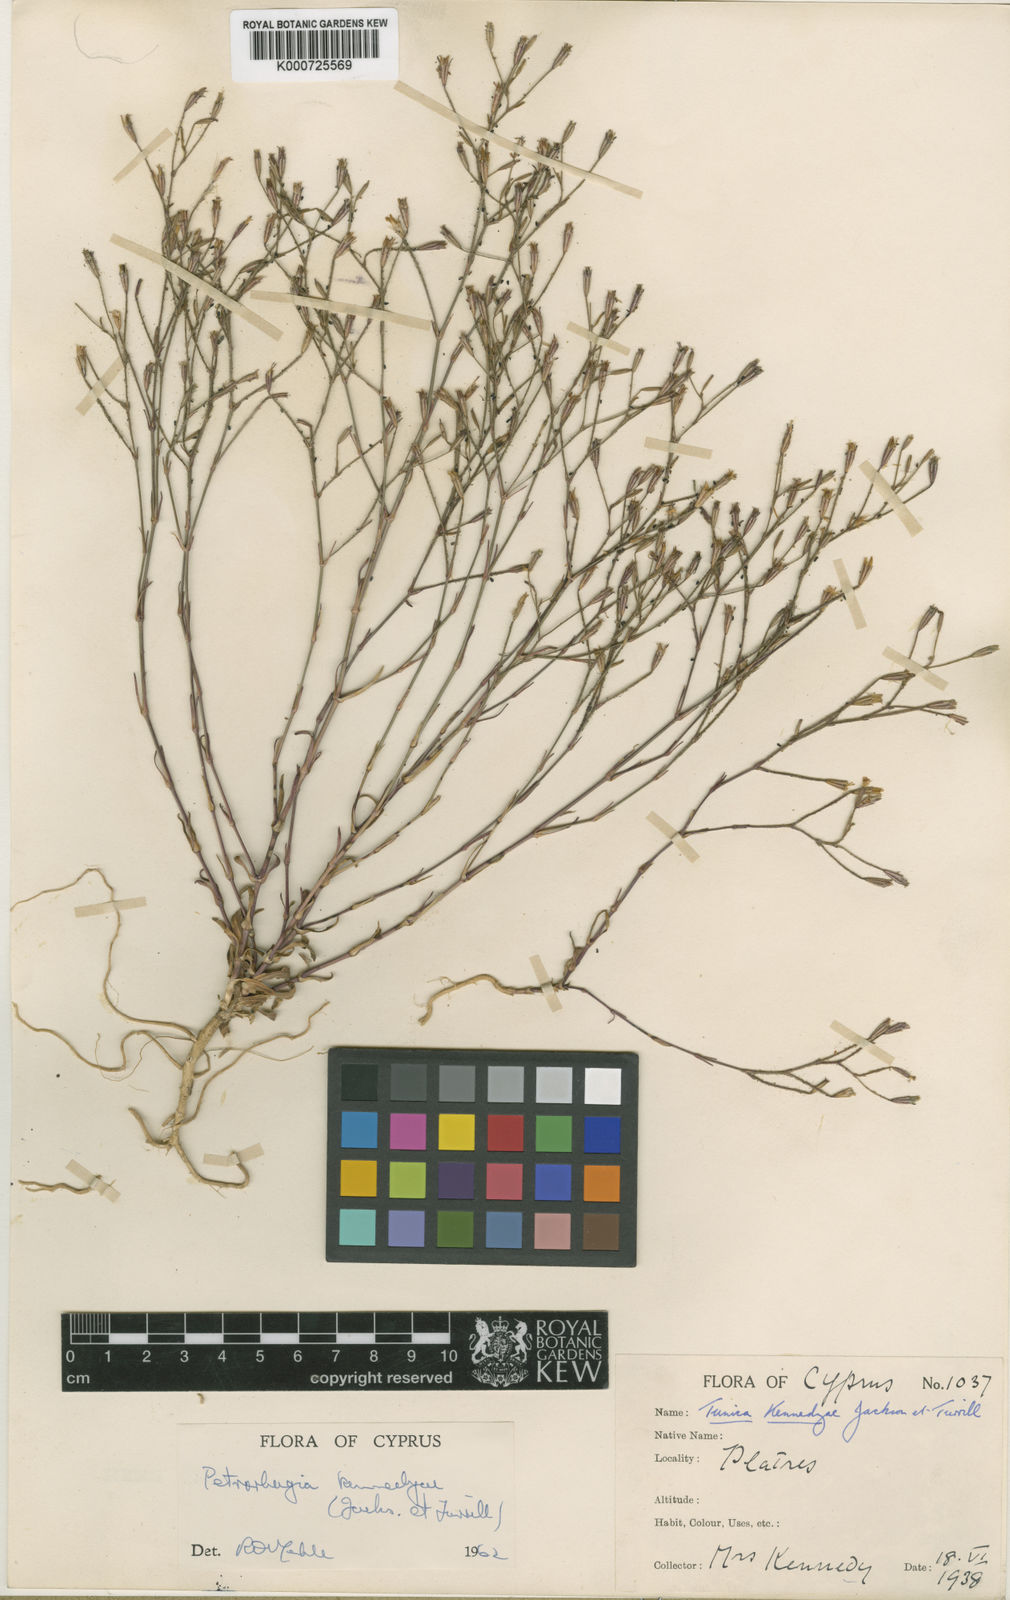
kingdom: Plantae
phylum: Tracheophyta
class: Magnoliopsida
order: Caryophyllales
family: Caryophyllaceae
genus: Petrorhagia
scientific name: Petrorhagia
